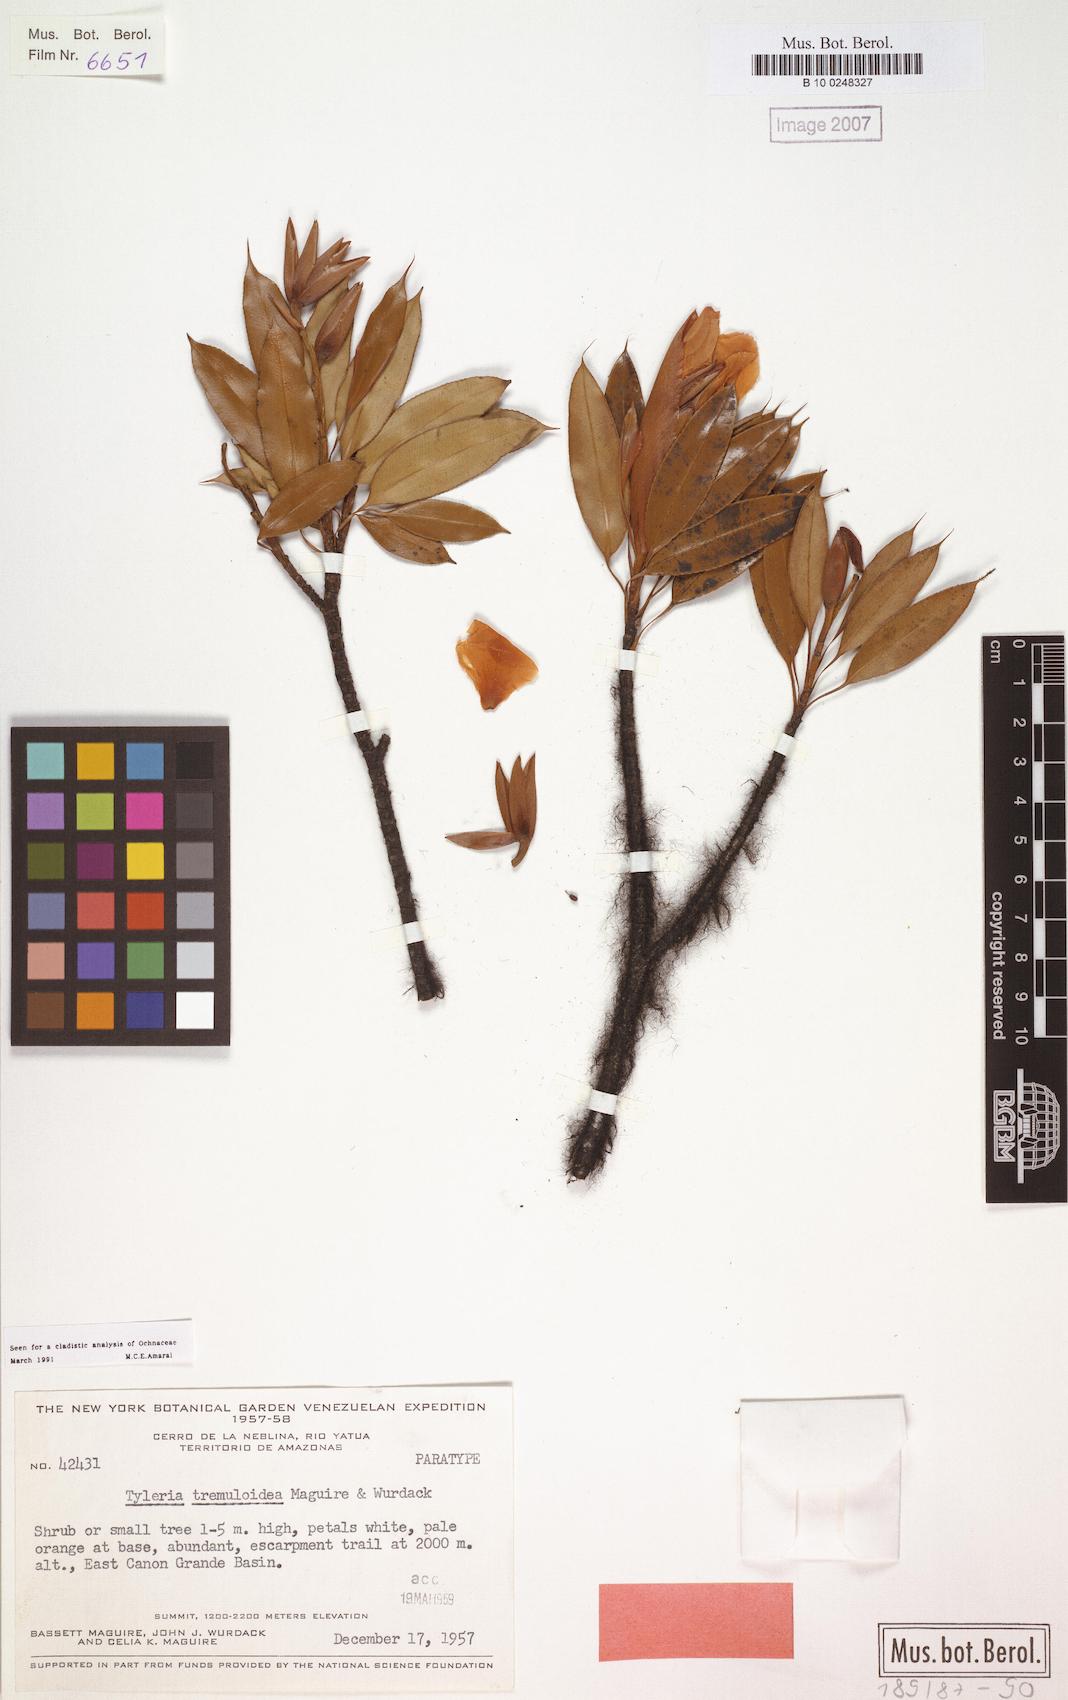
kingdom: Plantae
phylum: Tracheophyta
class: Magnoliopsida
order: Malpighiales
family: Ochnaceae
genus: Tyleria
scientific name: Tyleria tremuloidea
